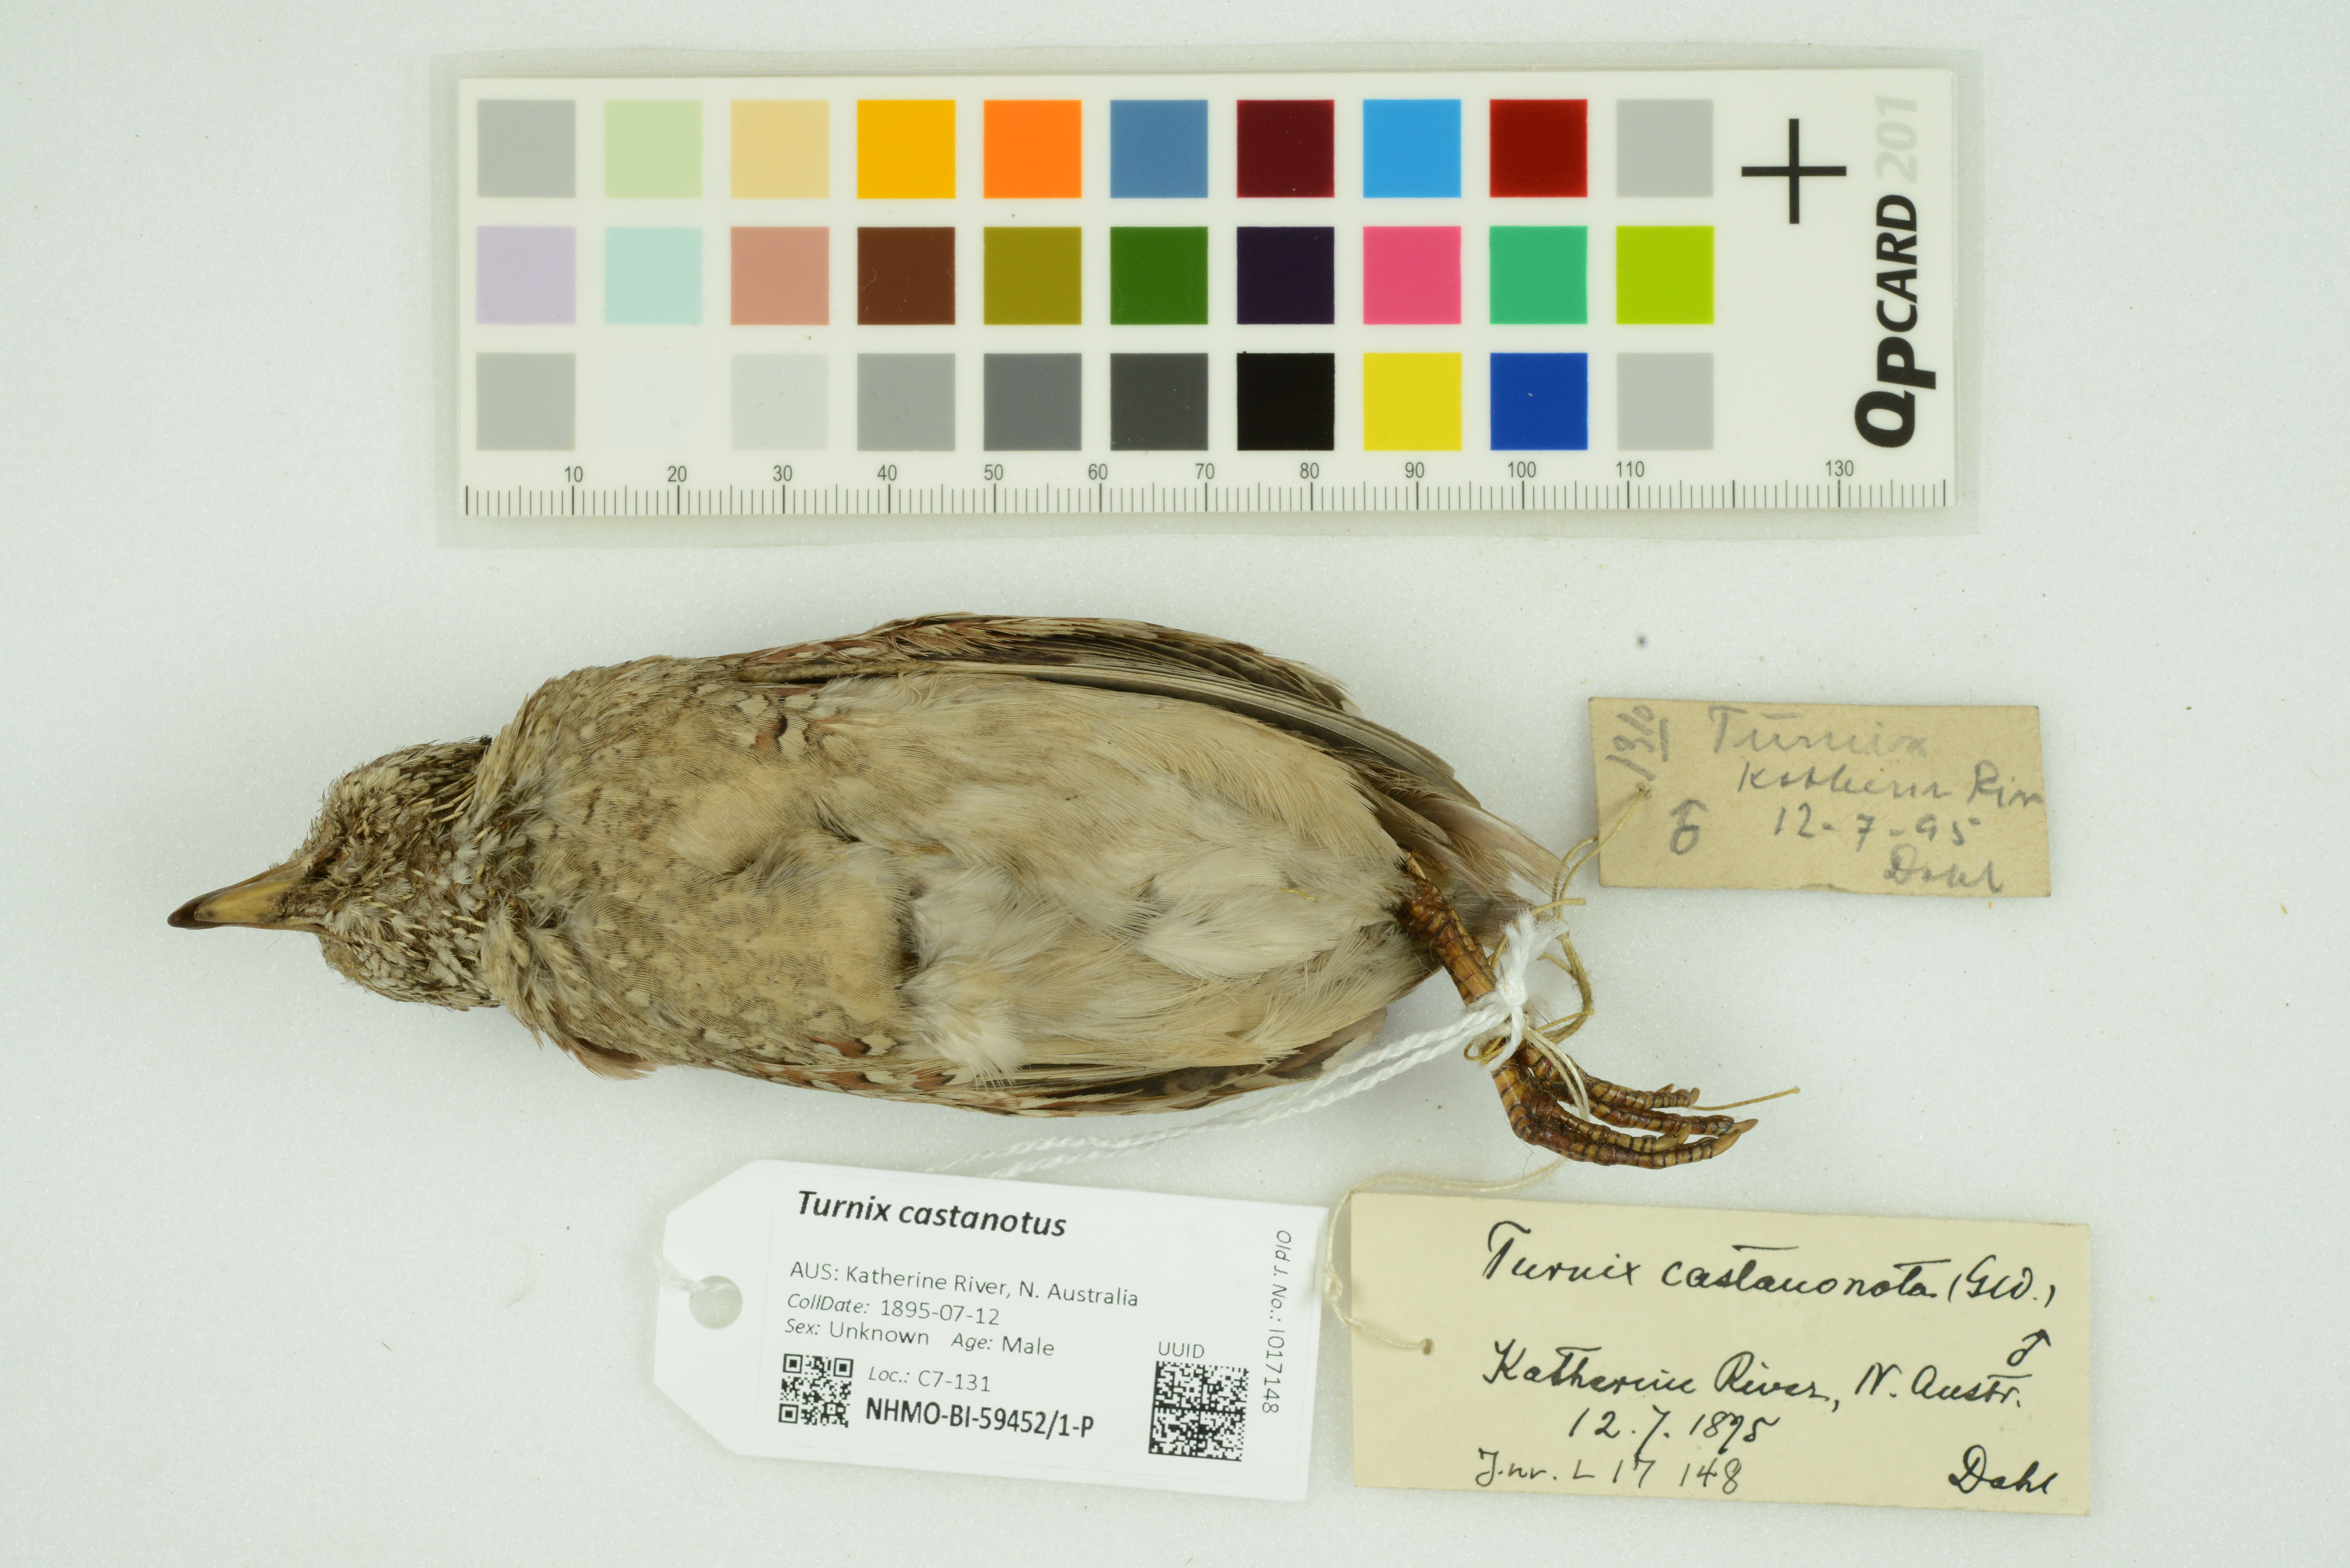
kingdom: Animalia
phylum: Chordata
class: Aves
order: Charadriiformes
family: Turnicidae
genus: Turnix
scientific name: Turnix castanotus
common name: Chestnut-backed buttonquail
